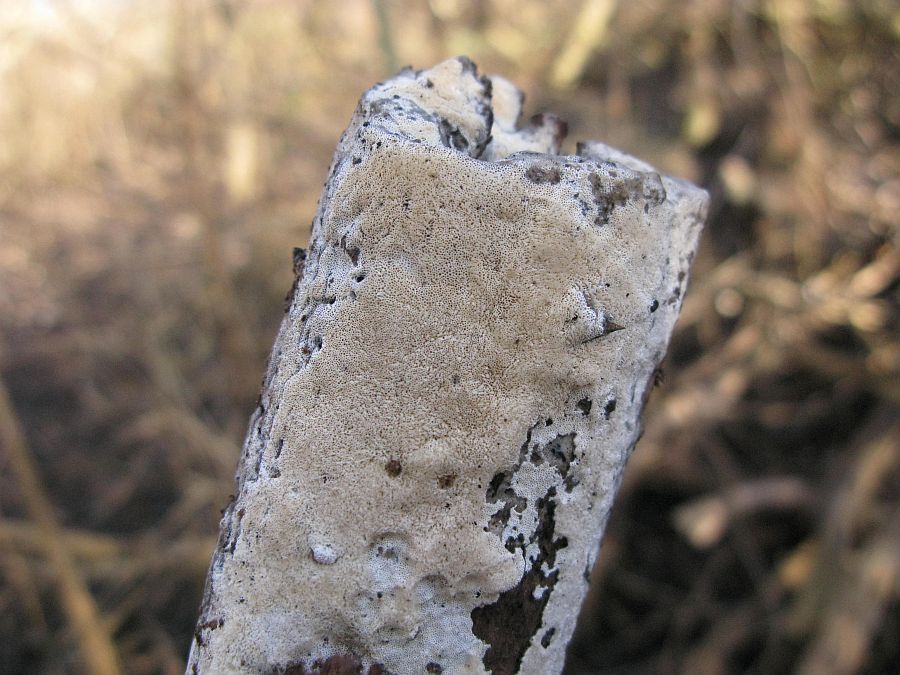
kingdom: Fungi
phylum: Basidiomycota
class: Agaricomycetes
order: Hymenochaetales
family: Oxyporaceae
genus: Oxyporus
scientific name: Oxyporus obducens
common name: skorpe-trylleporesvamp
